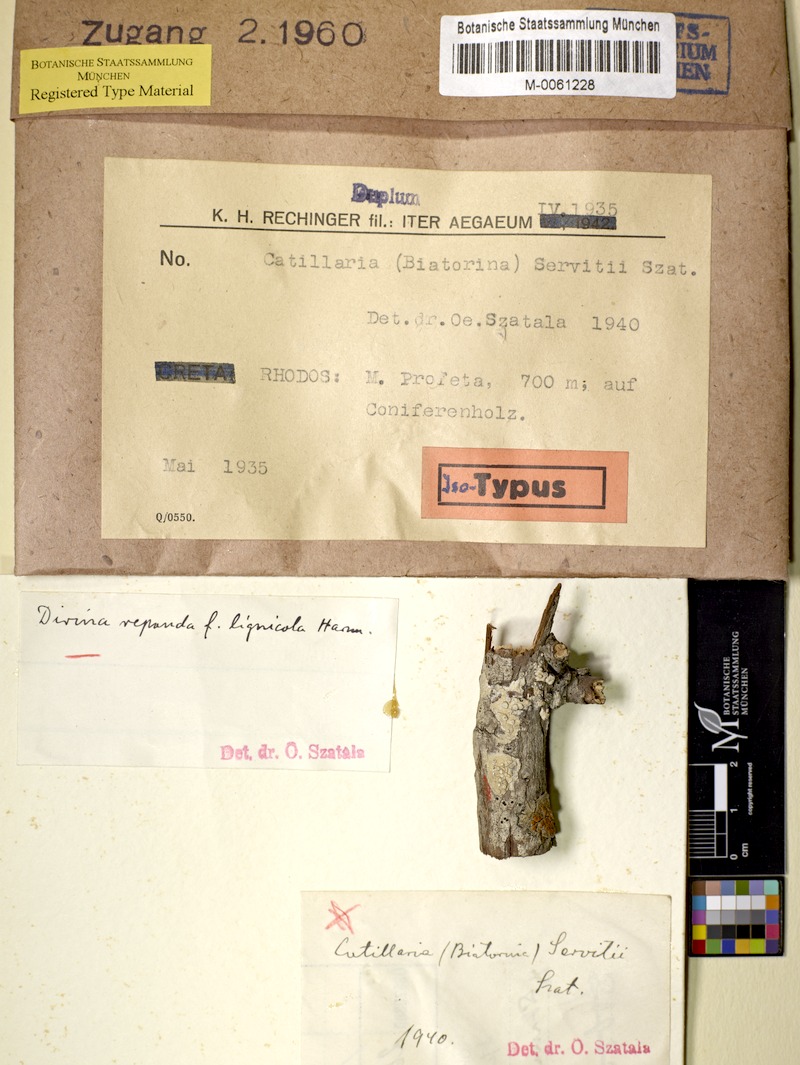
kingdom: Fungi
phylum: Ascomycota
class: Lecanoromycetes
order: Lecanorales
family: Catillariaceae
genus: Catillaria
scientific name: Catillaria servitii
